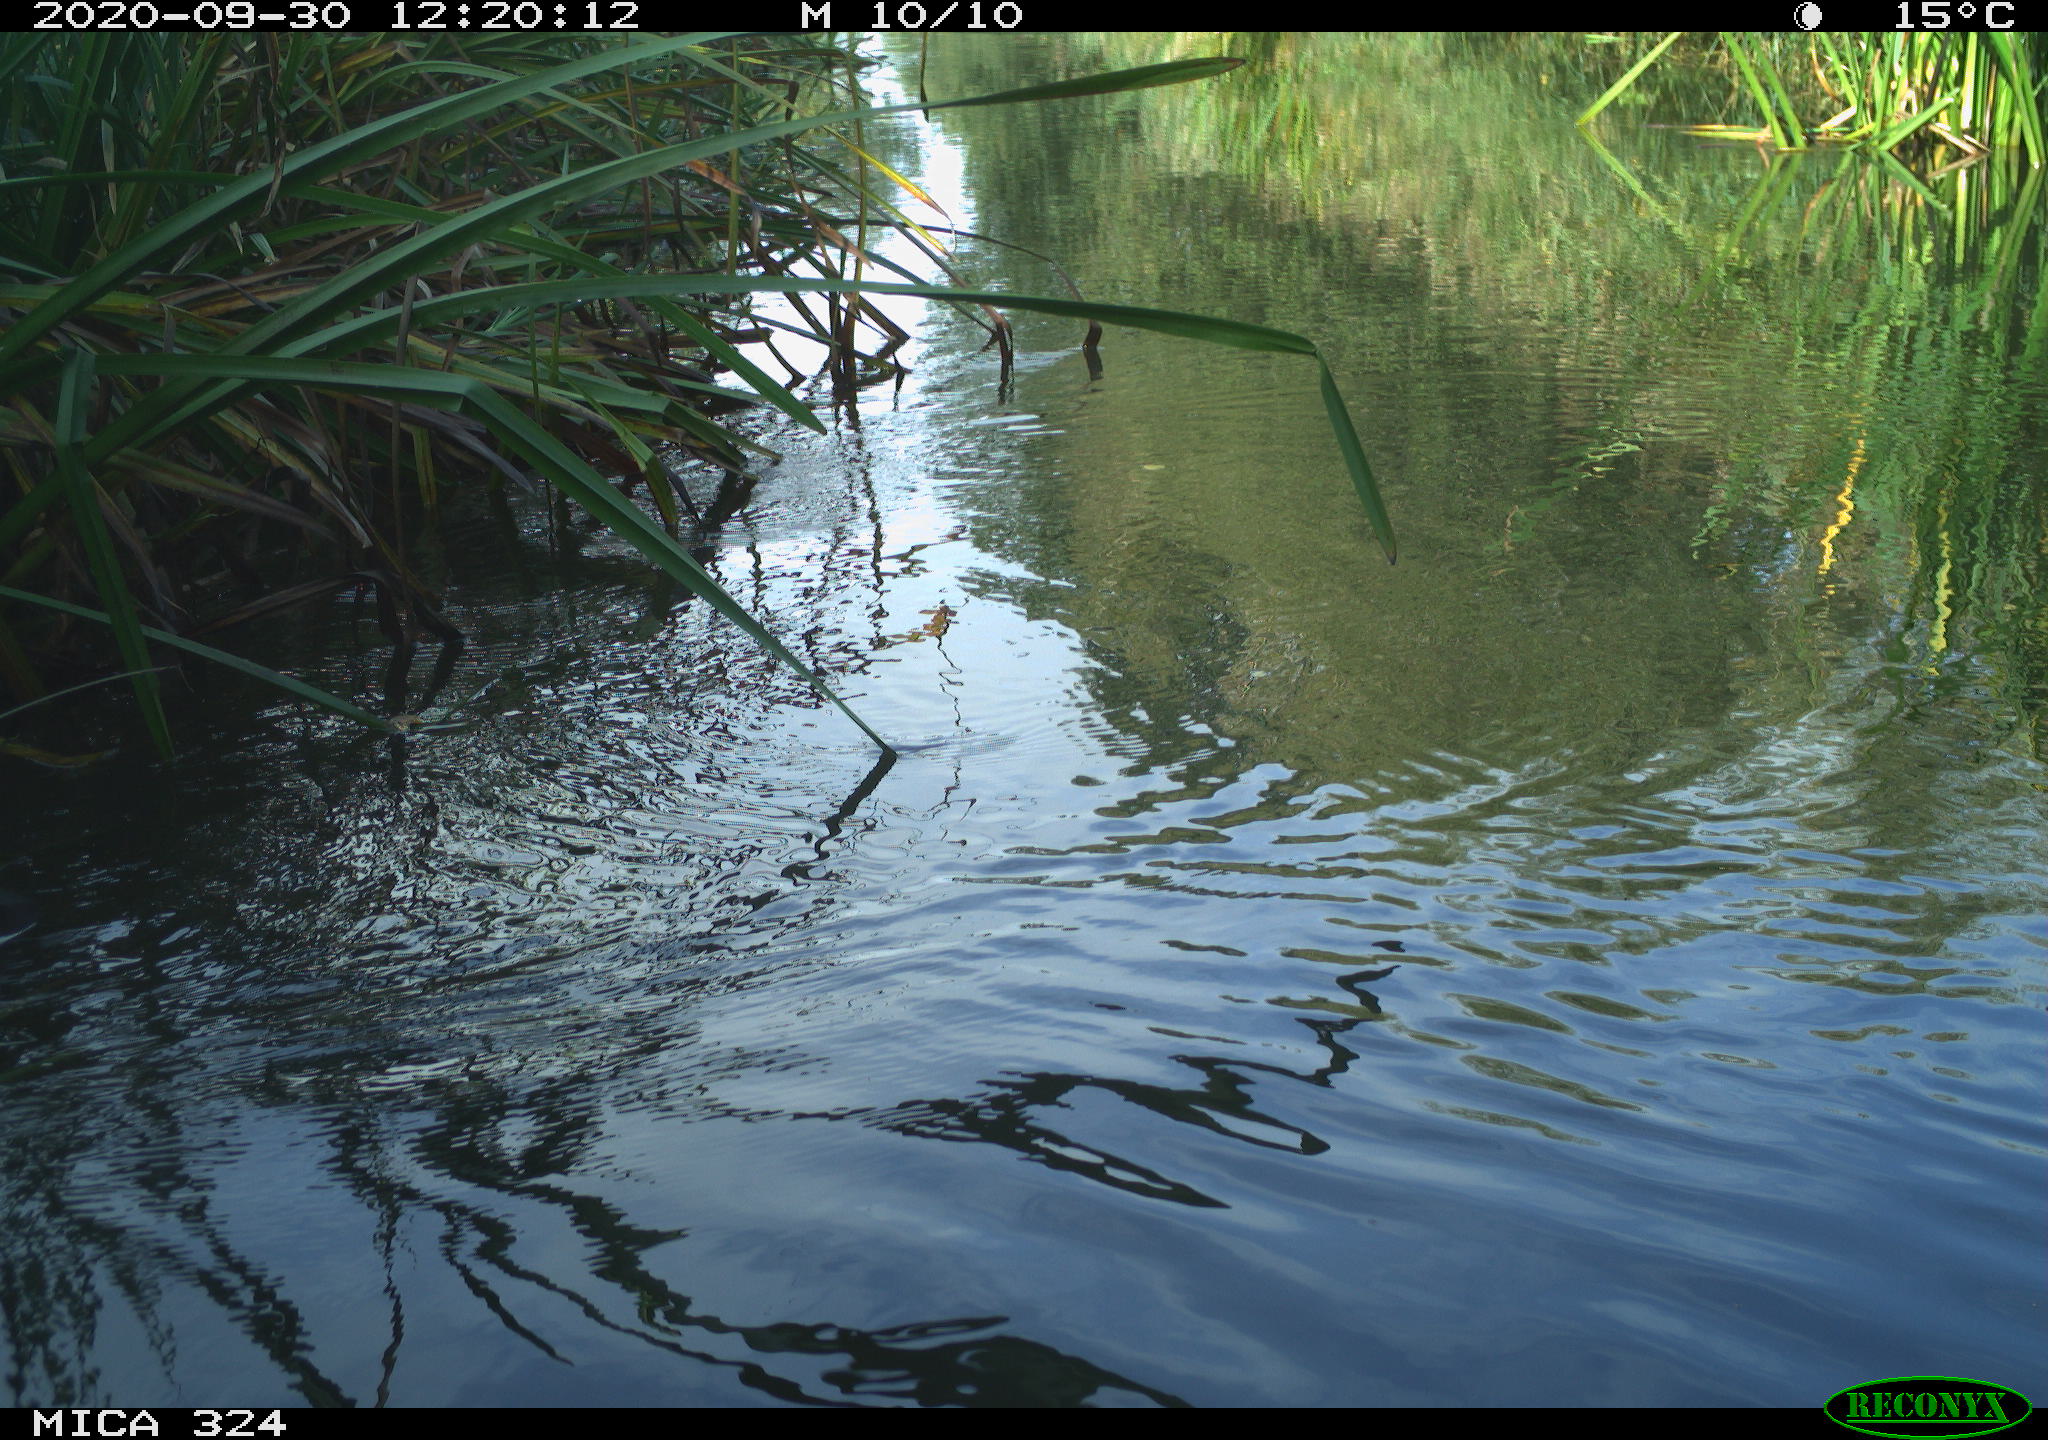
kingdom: Animalia
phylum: Chordata
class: Aves
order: Gruiformes
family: Rallidae
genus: Gallinula
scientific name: Gallinula chloropus
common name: Common moorhen
